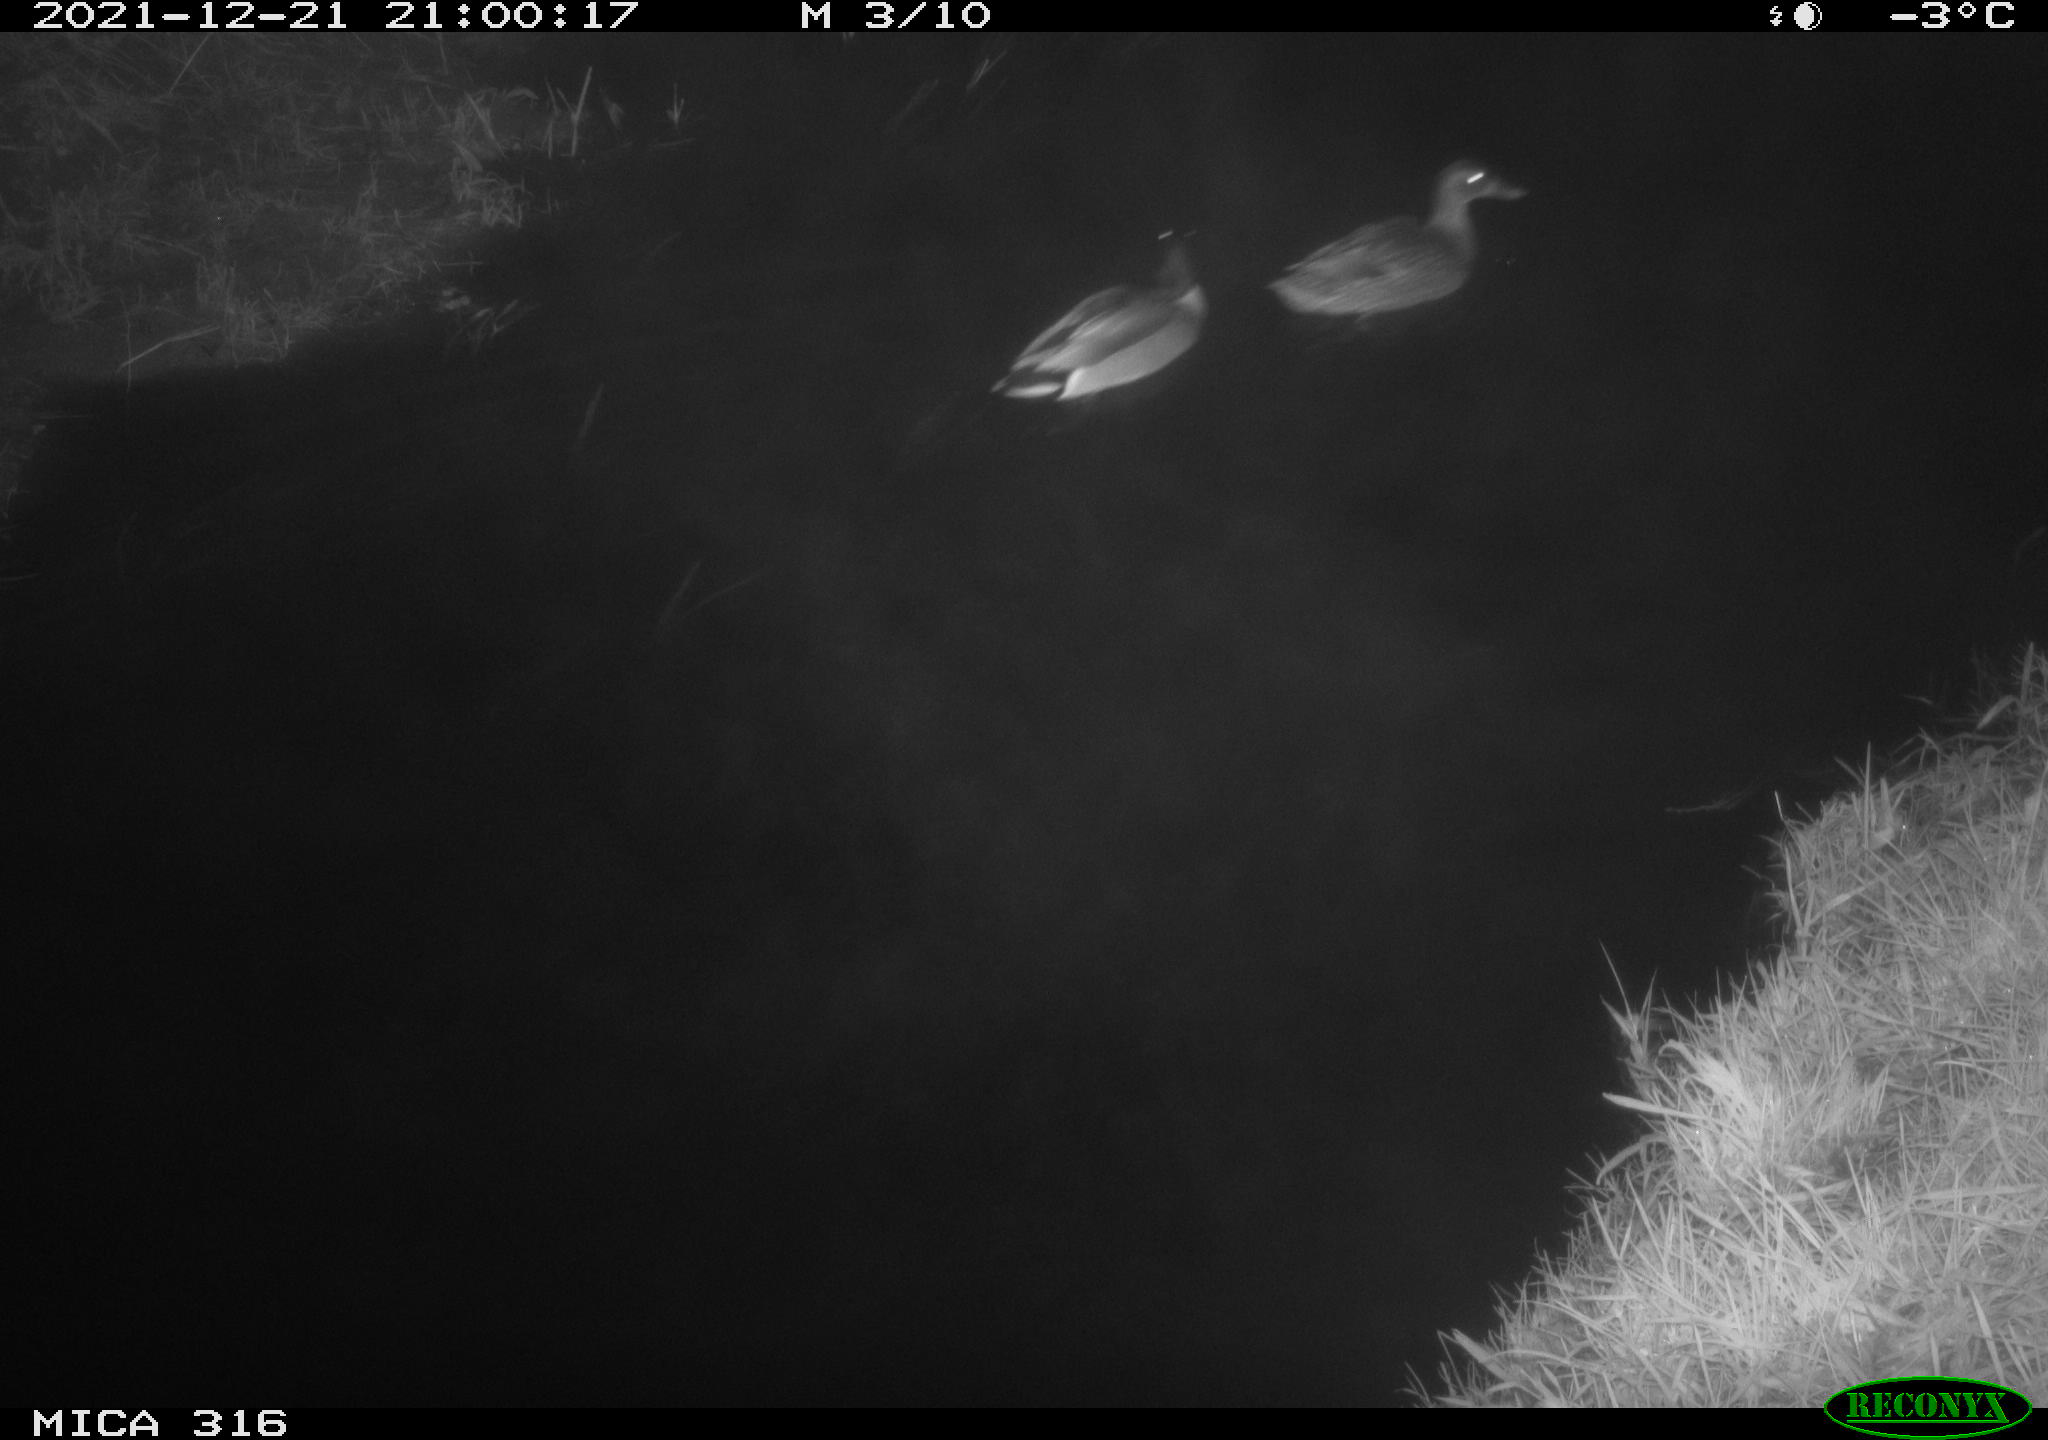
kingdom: Animalia
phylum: Chordata
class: Aves
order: Anseriformes
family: Anatidae
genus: Anas
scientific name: Anas platyrhynchos
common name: Mallard
